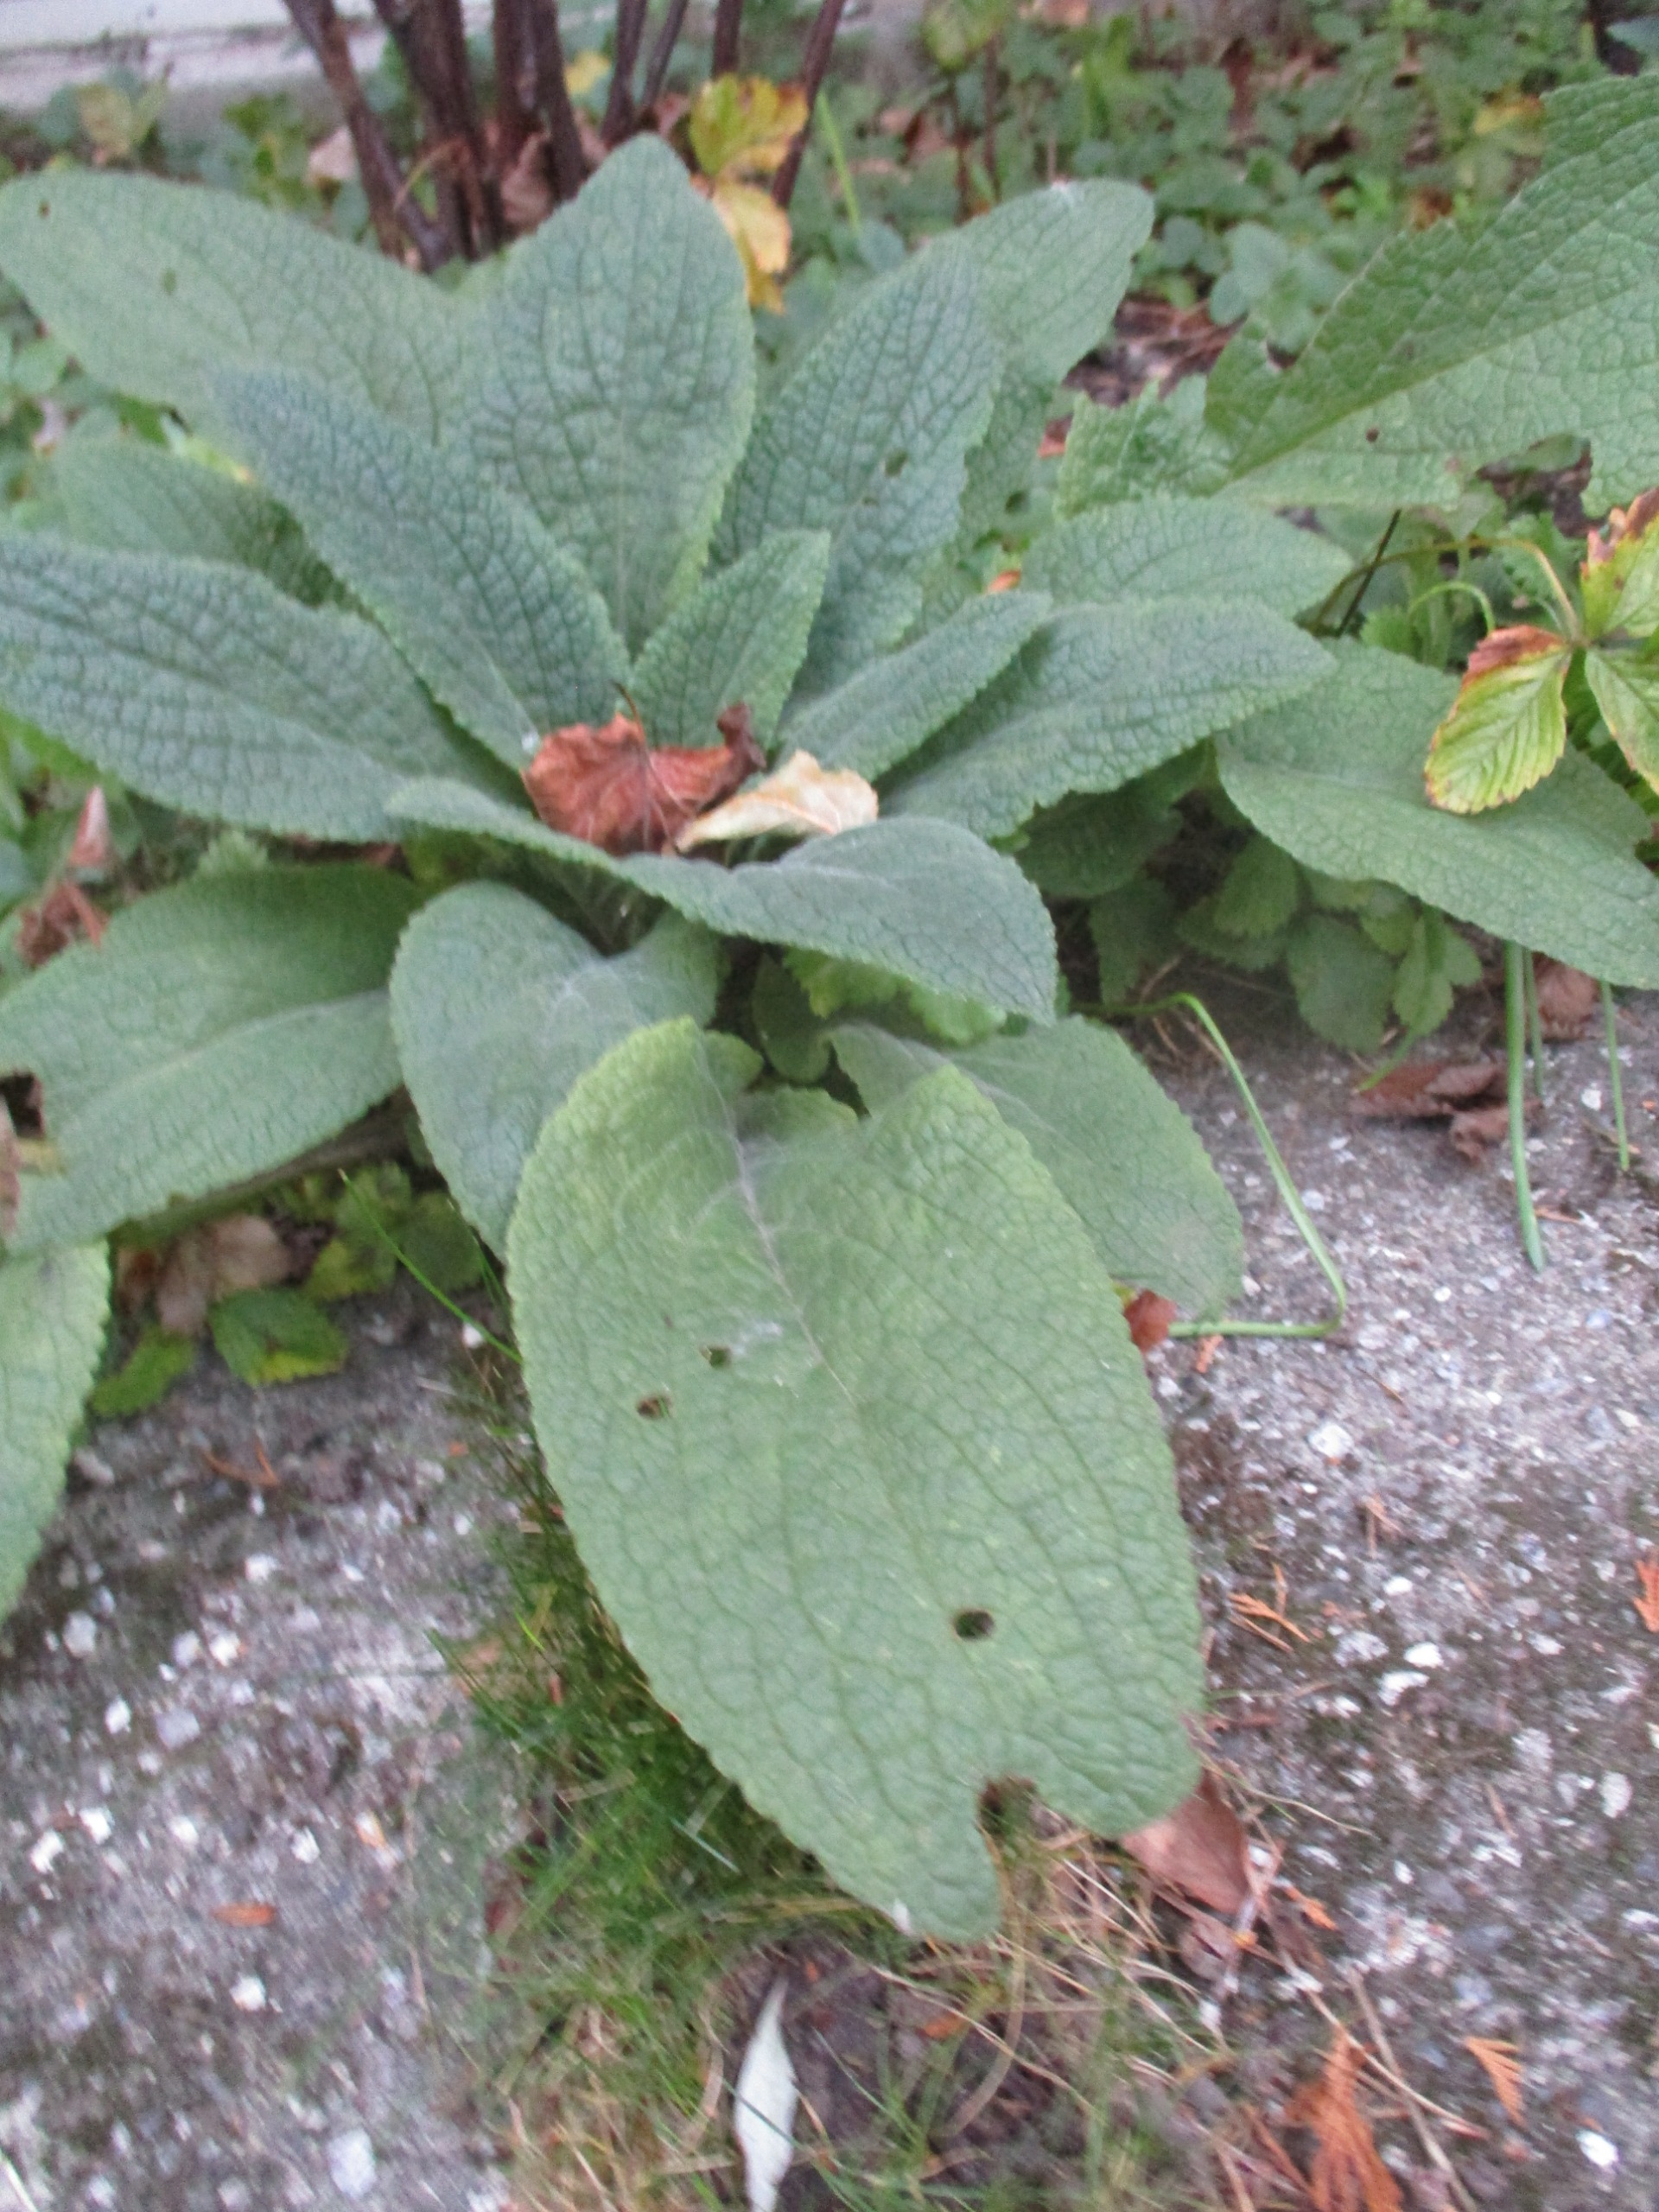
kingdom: Plantae
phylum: Tracheophyta
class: Magnoliopsida
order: Lamiales
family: Plantaginaceae
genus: Digitalis
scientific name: Digitalis purpurea
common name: Almindelig fingerbøl
